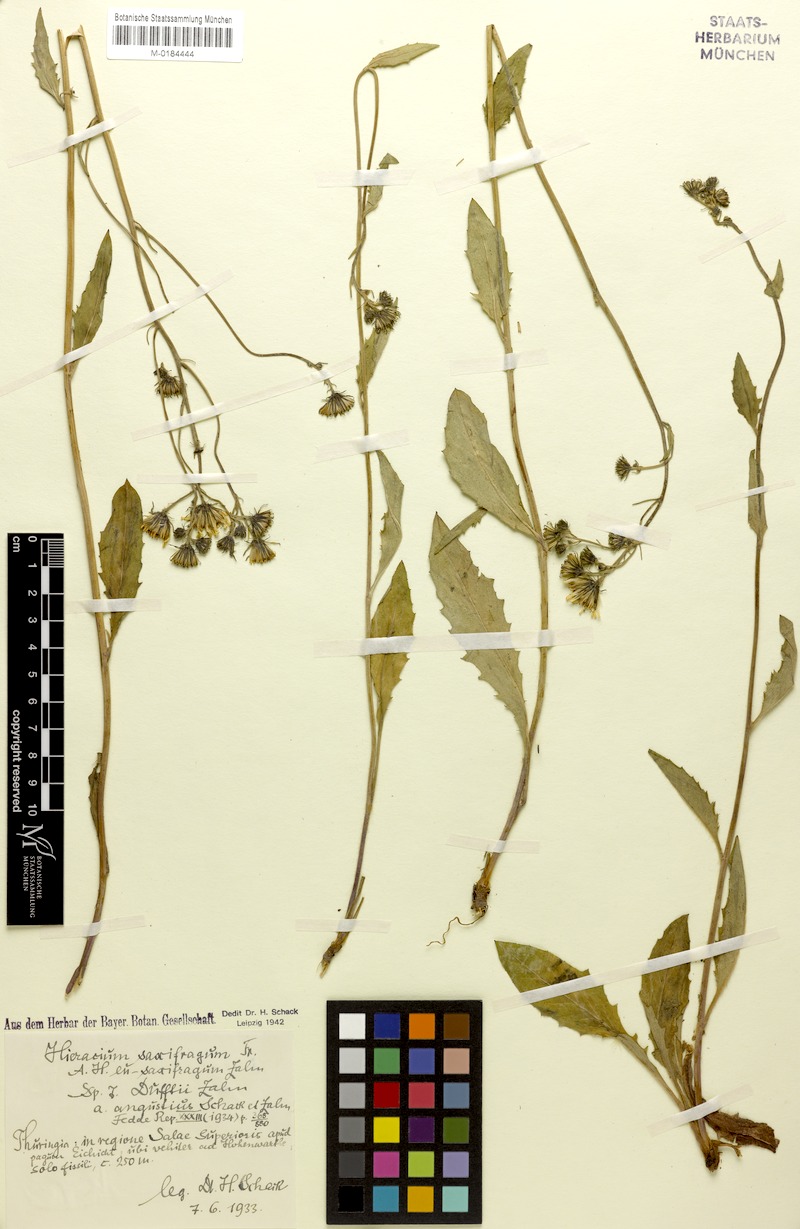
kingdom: Plantae
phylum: Tracheophyta
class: Magnoliopsida
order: Asterales
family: Asteraceae
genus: Hieracium
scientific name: Hieracium saxifragum
